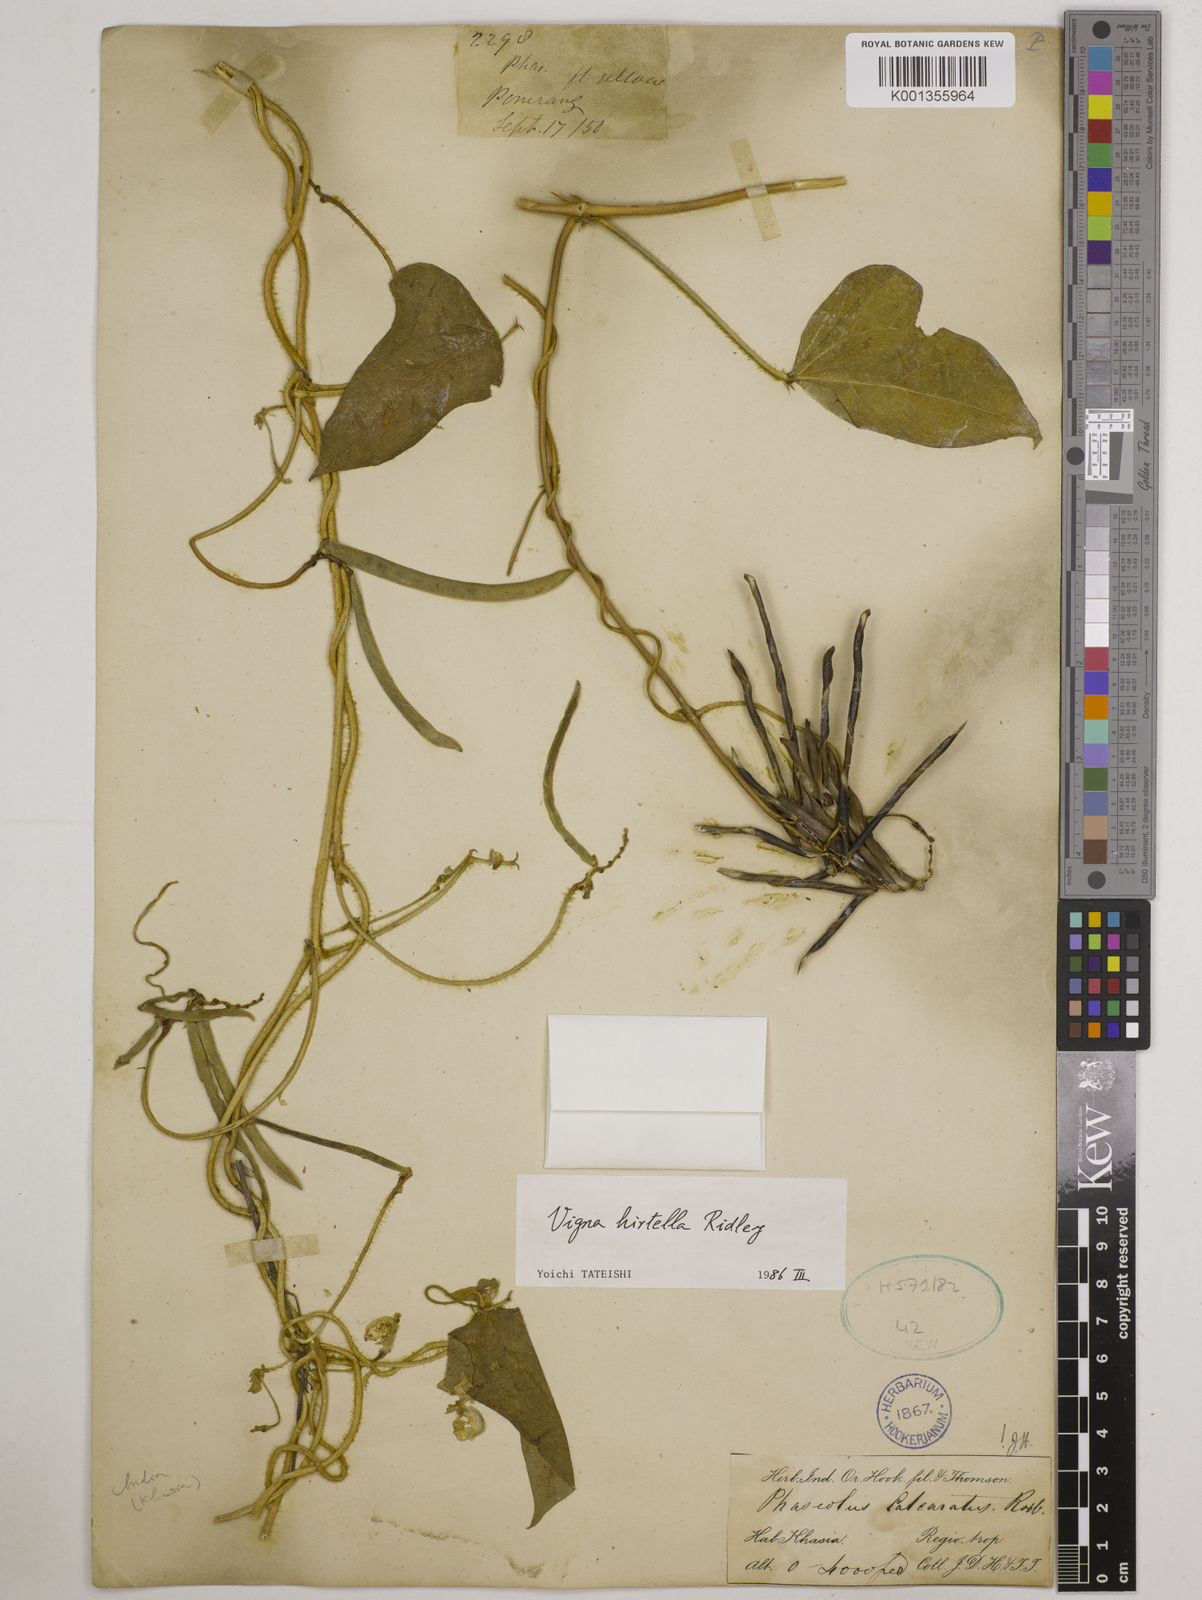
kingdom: Plantae
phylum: Tracheophyta
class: Magnoliopsida
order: Fabales
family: Fabaceae
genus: Vigna
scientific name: Vigna hirtella
